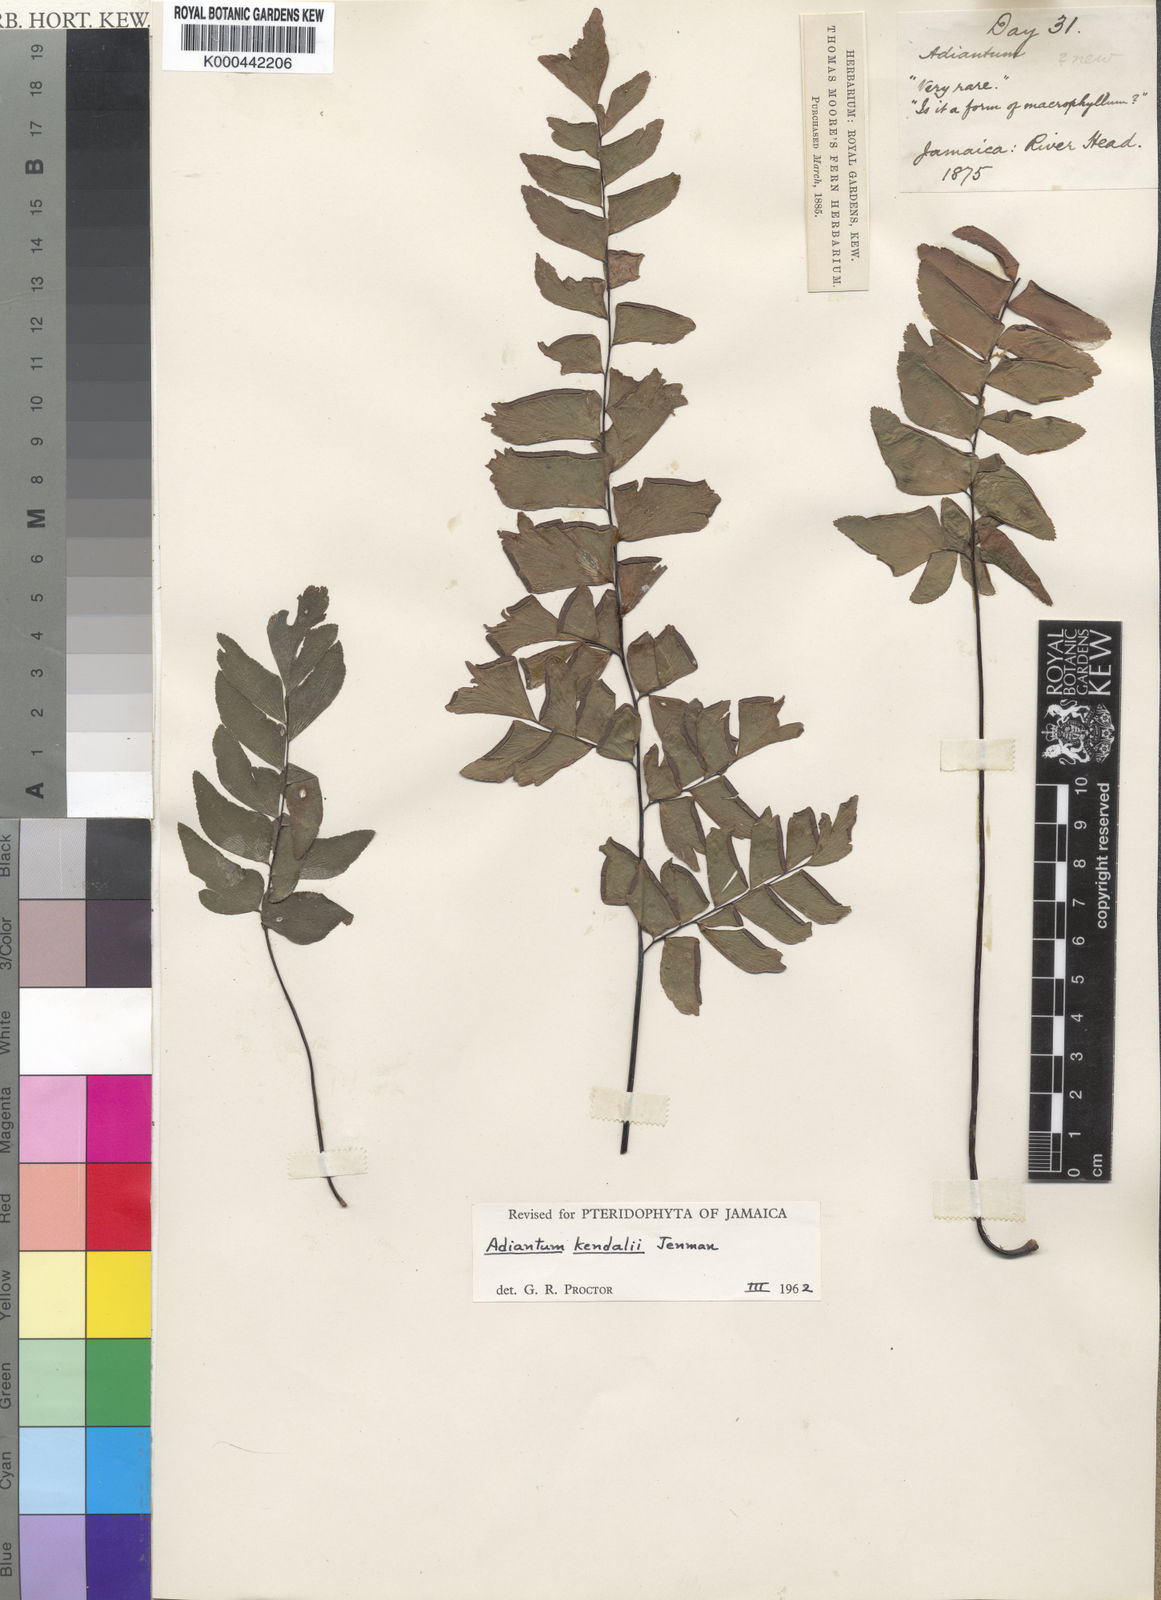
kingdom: Plantae
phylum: Tracheophyta
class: Polypodiopsida
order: Polypodiales
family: Pteridaceae
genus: Adiantum
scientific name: Adiantum kendalii
